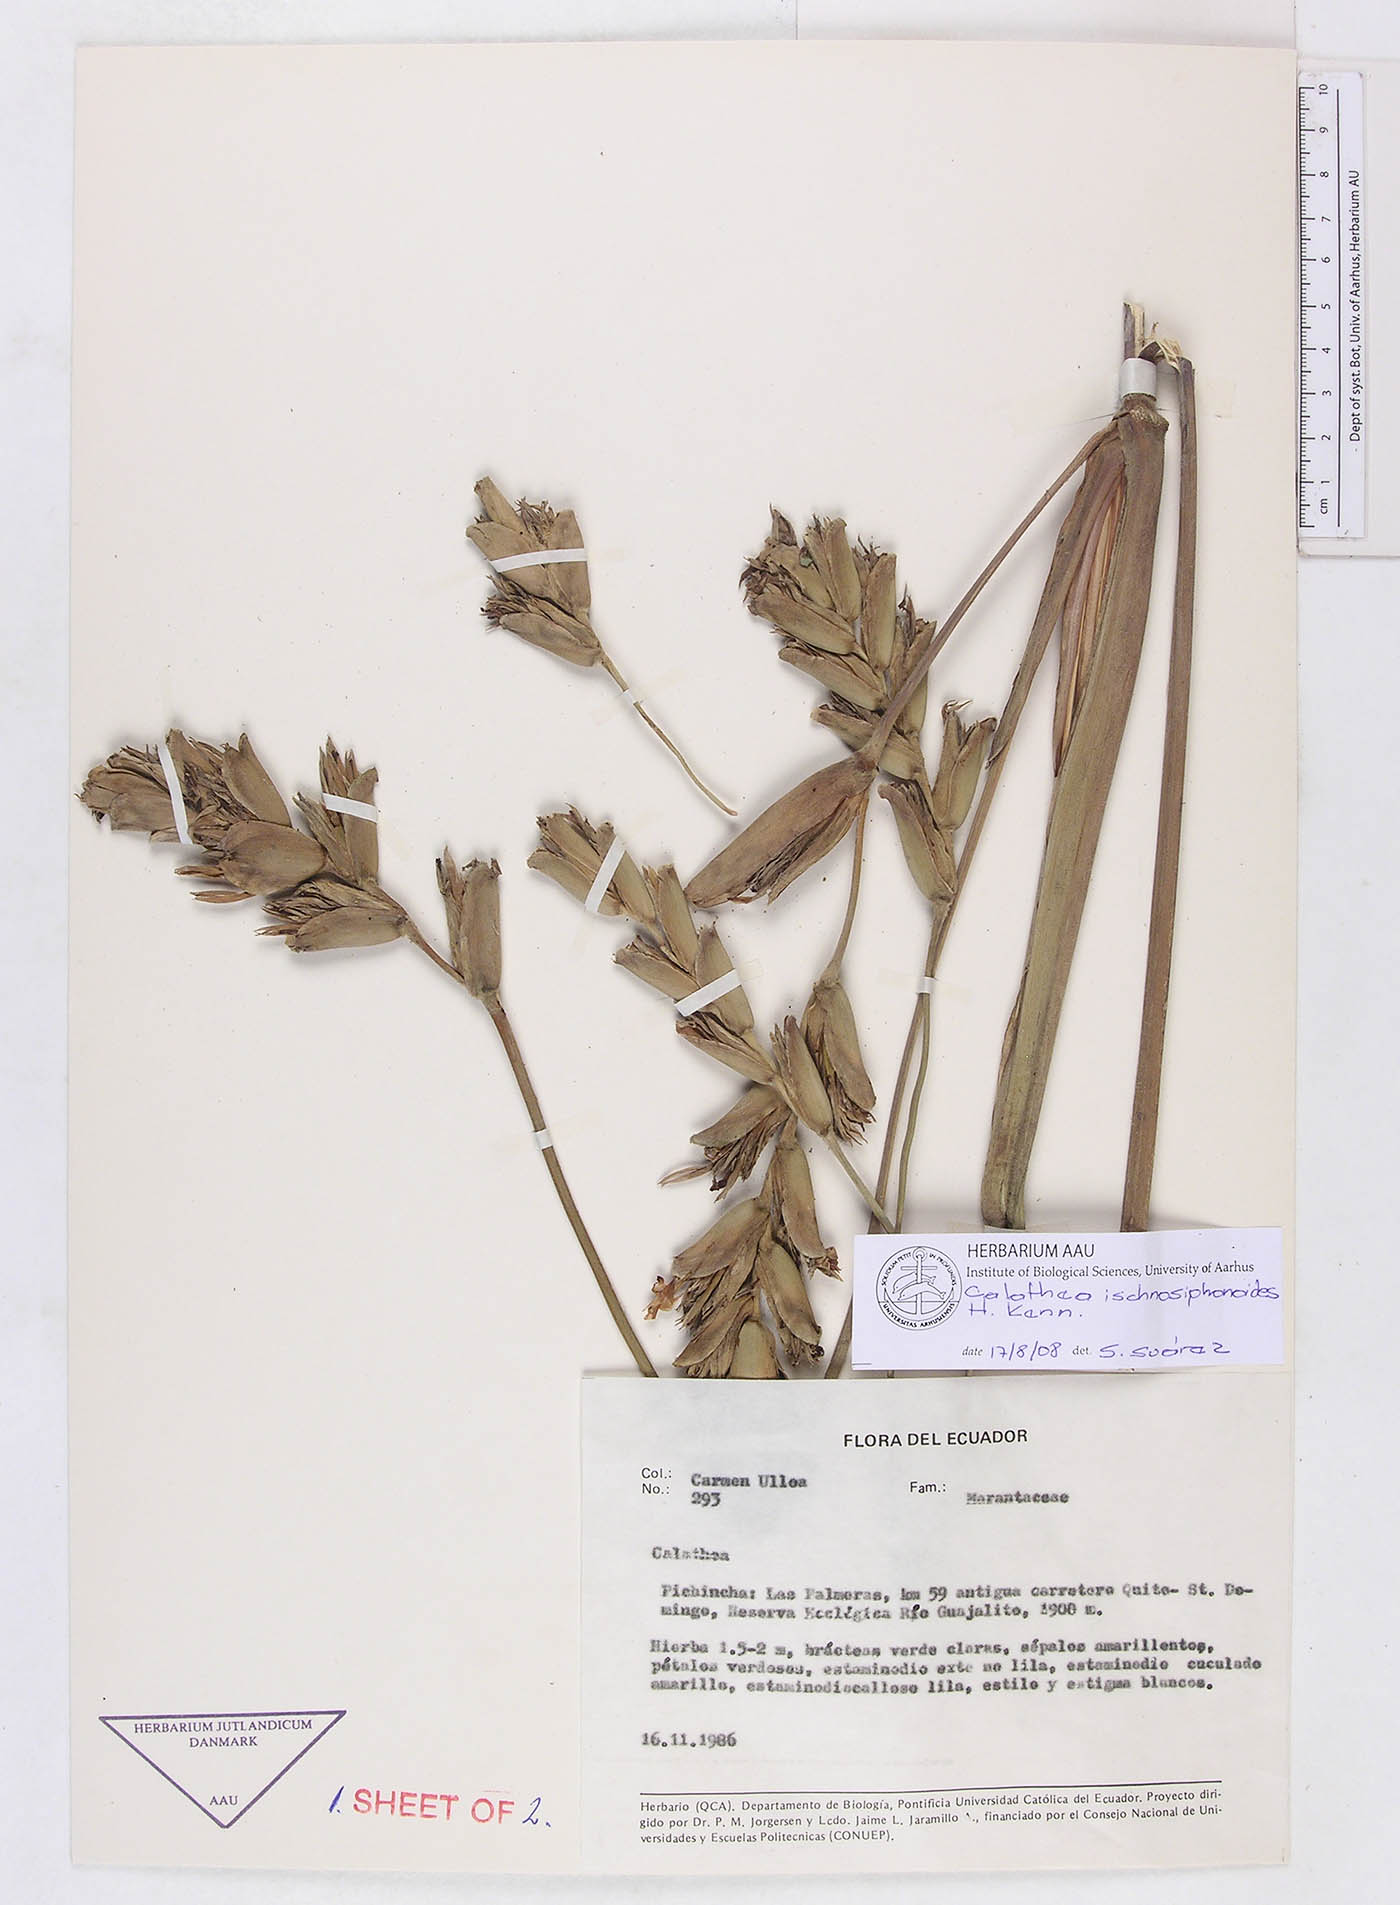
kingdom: Plantae
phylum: Tracheophyta
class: Liliopsida
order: Zingiberales
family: Marantaceae
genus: Calathea
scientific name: Calathea ischnosiphonoides
